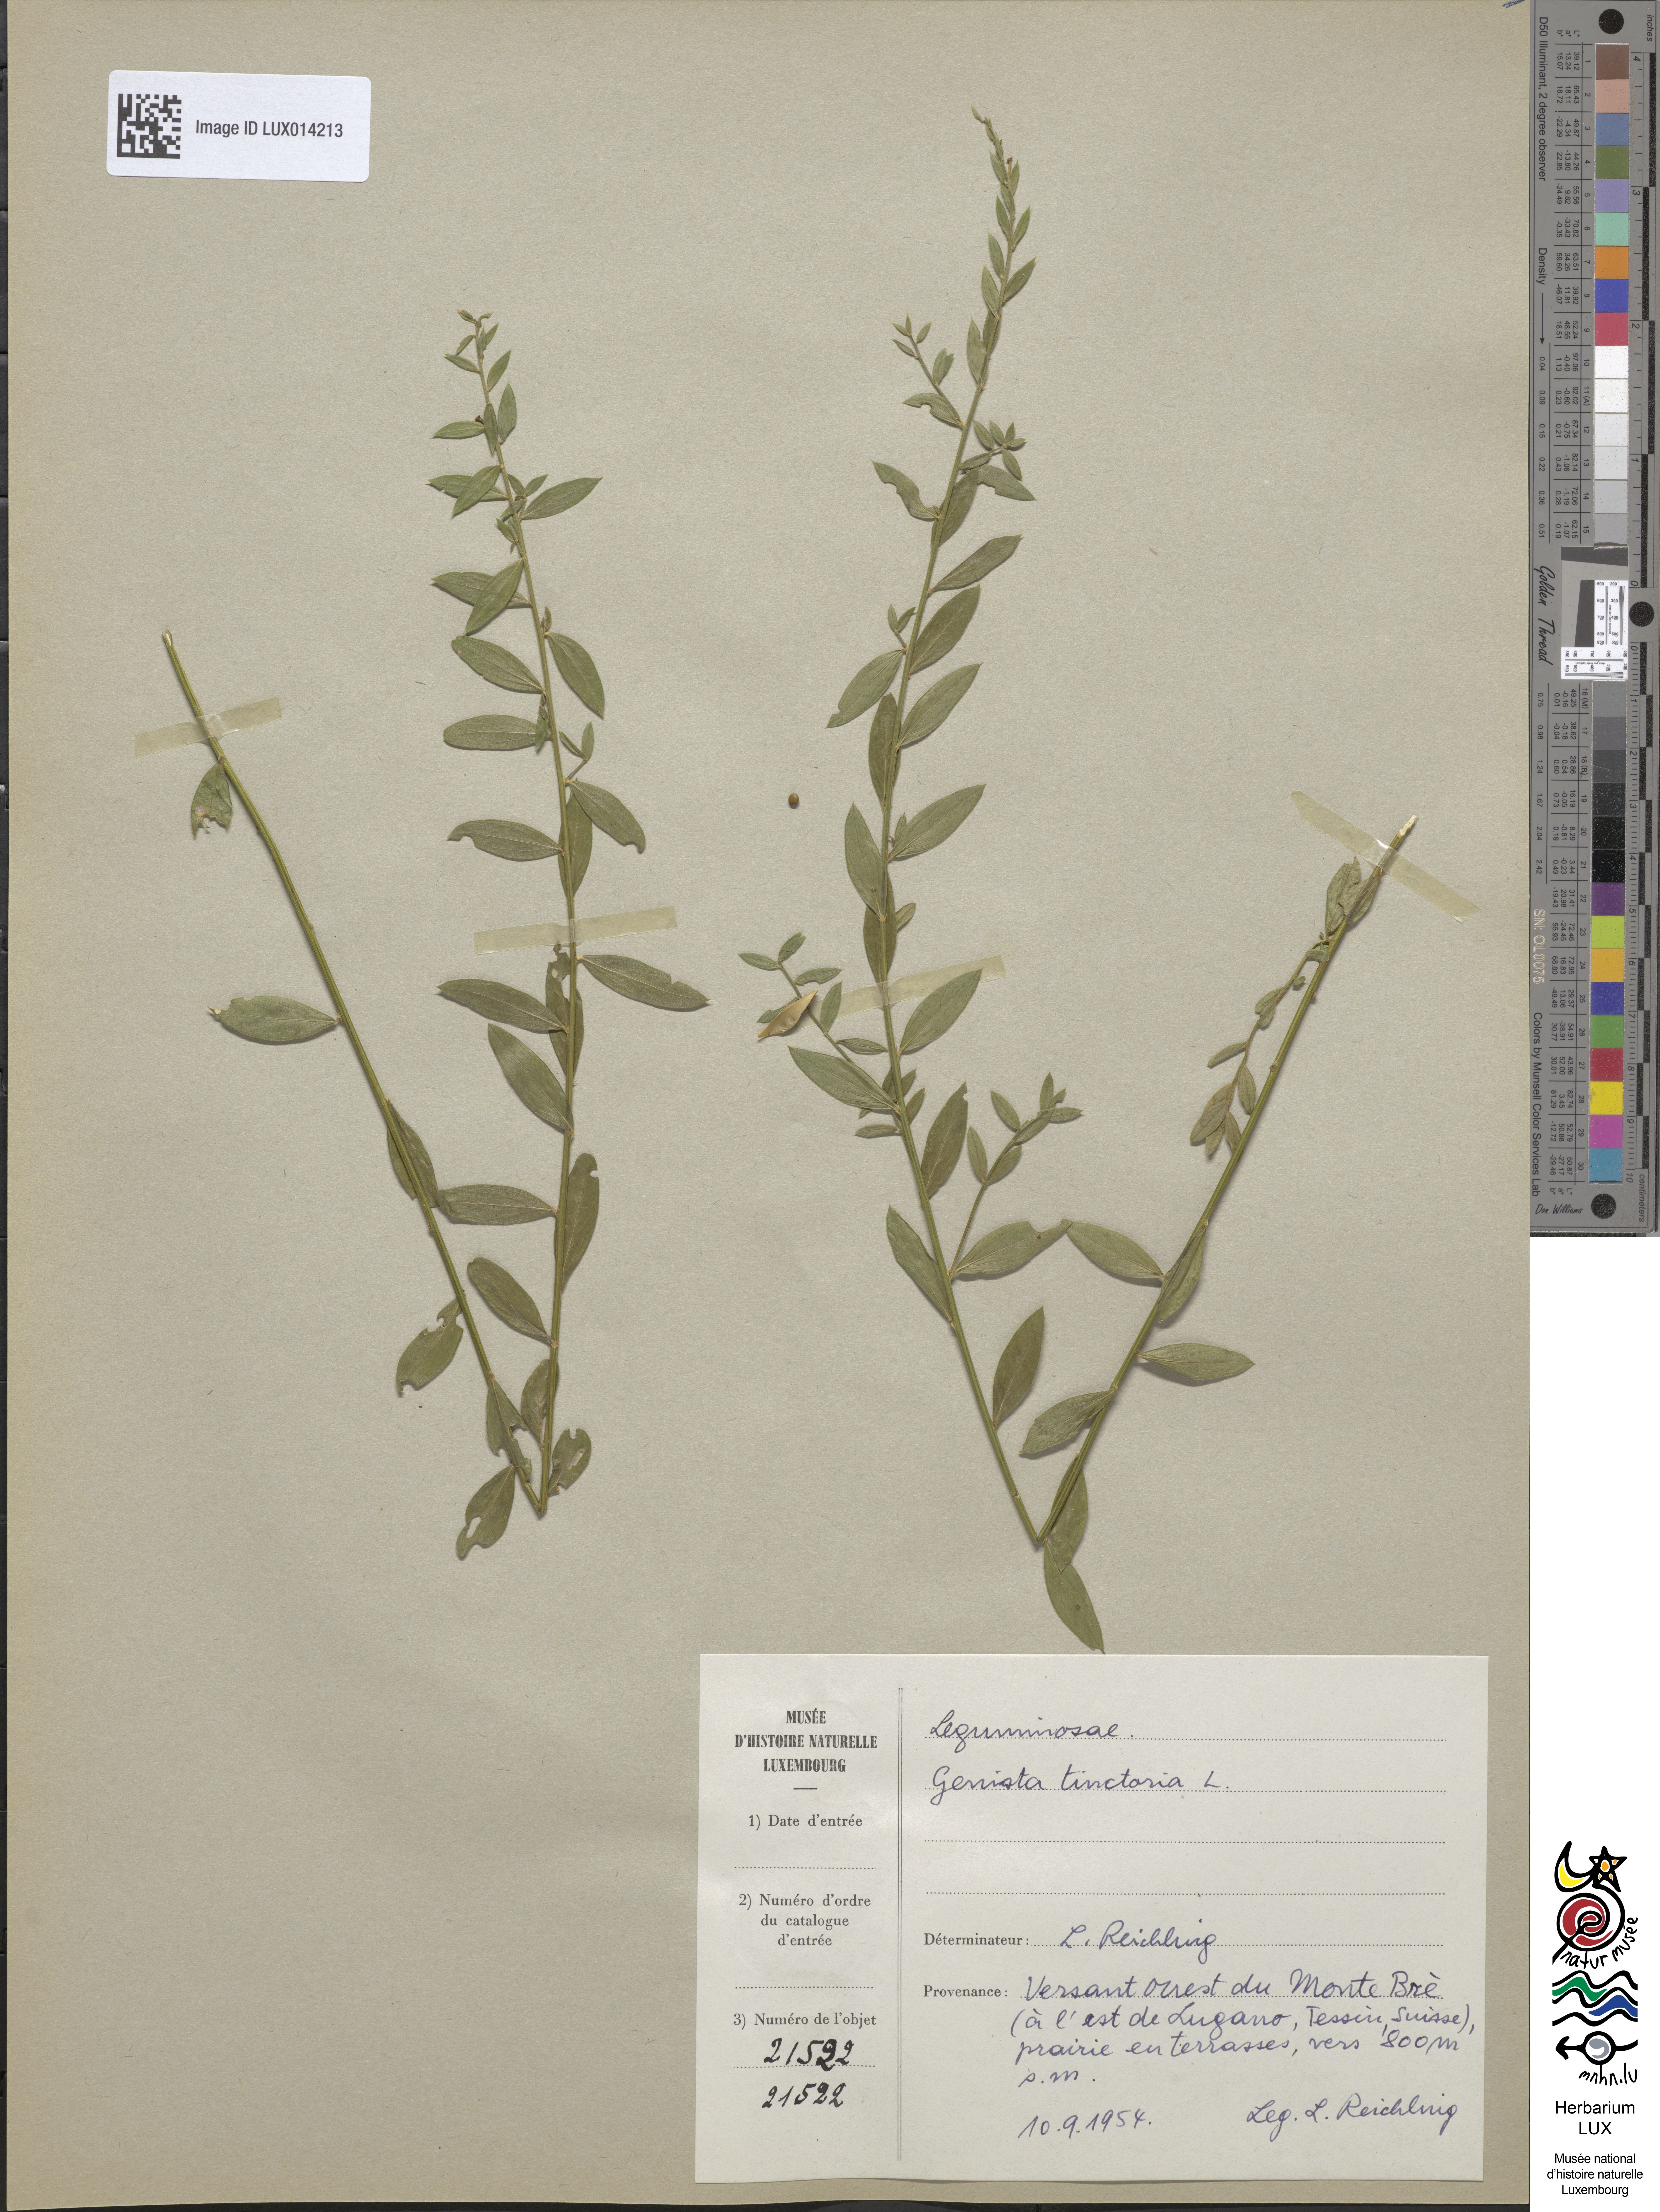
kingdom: Plantae
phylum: Tracheophyta
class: Magnoliopsida
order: Fabales
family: Fabaceae
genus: Genista
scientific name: Genista tinctoria
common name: Dyer's greenweed
